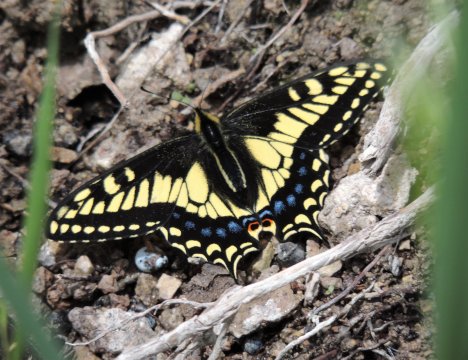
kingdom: Animalia
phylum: Arthropoda
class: Insecta
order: Lepidoptera
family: Papilionidae
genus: Papilio
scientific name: Papilio machaon
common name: Old World Swallowtail
